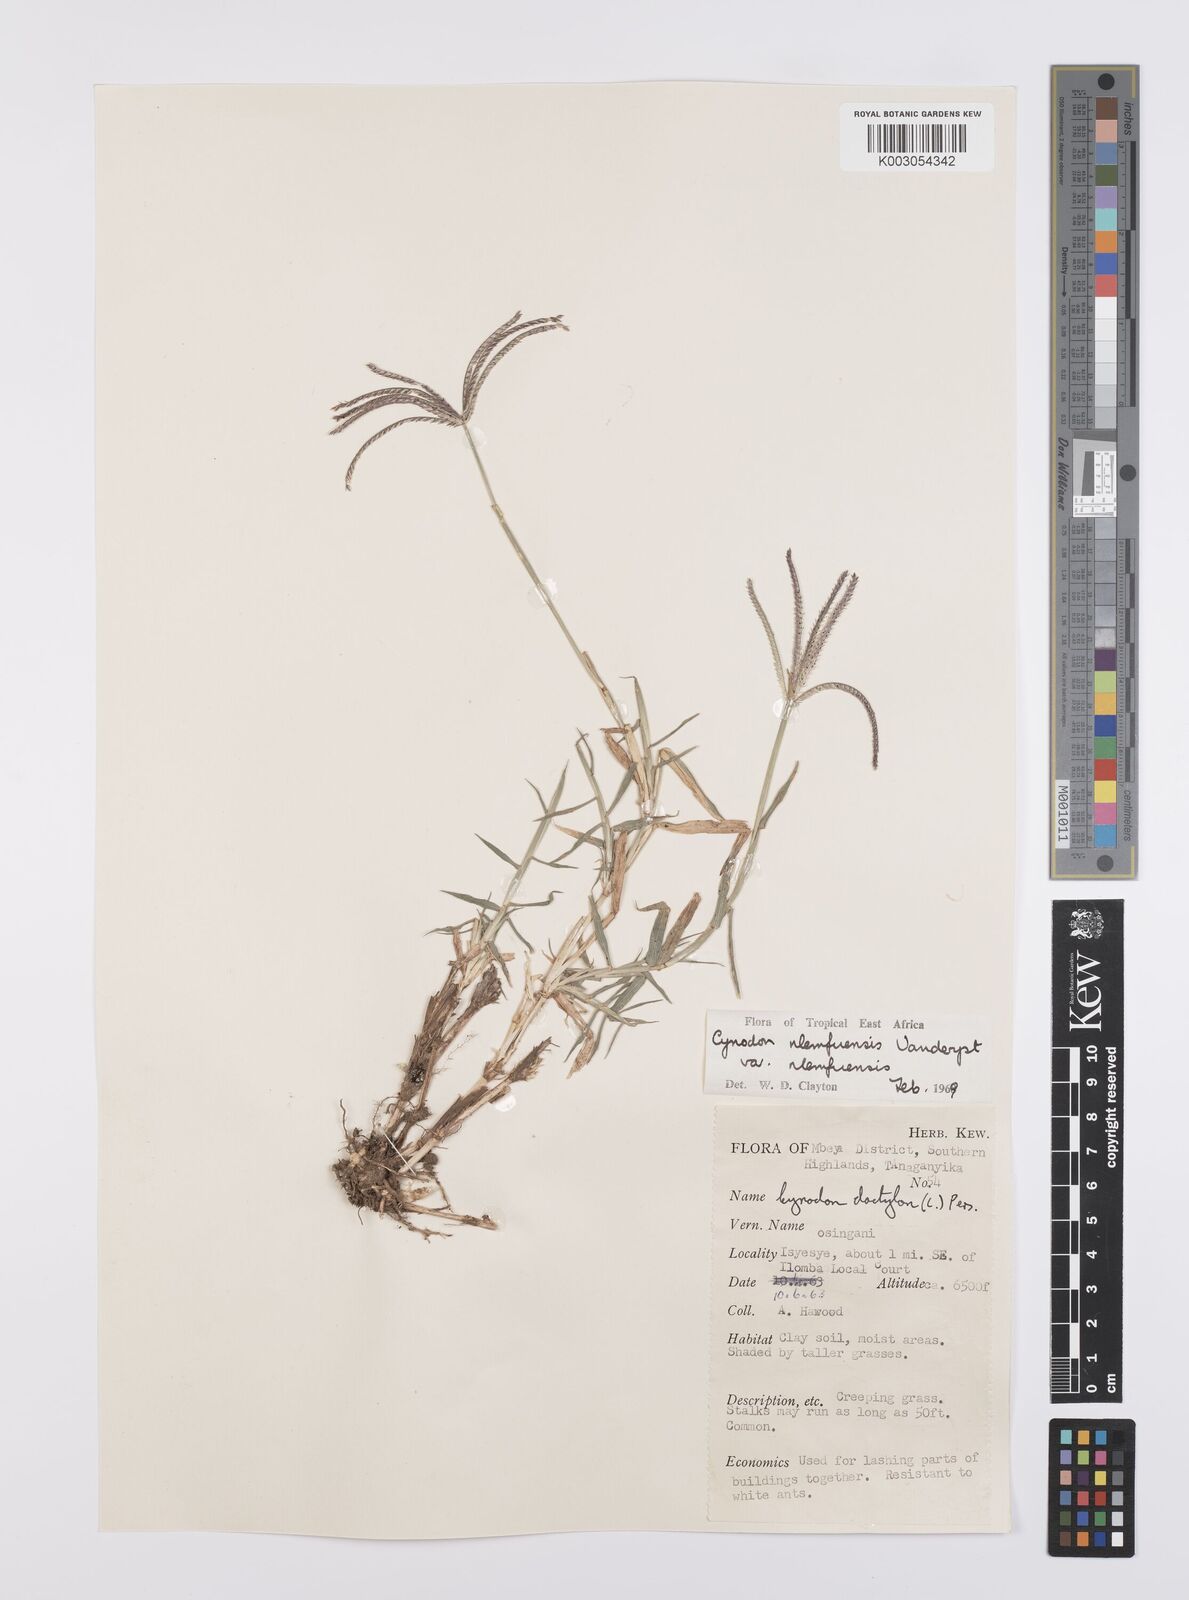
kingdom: Plantae
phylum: Tracheophyta
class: Liliopsida
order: Poales
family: Poaceae
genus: Cynodon
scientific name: Cynodon nlemfuensis
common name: African bermudagrass
